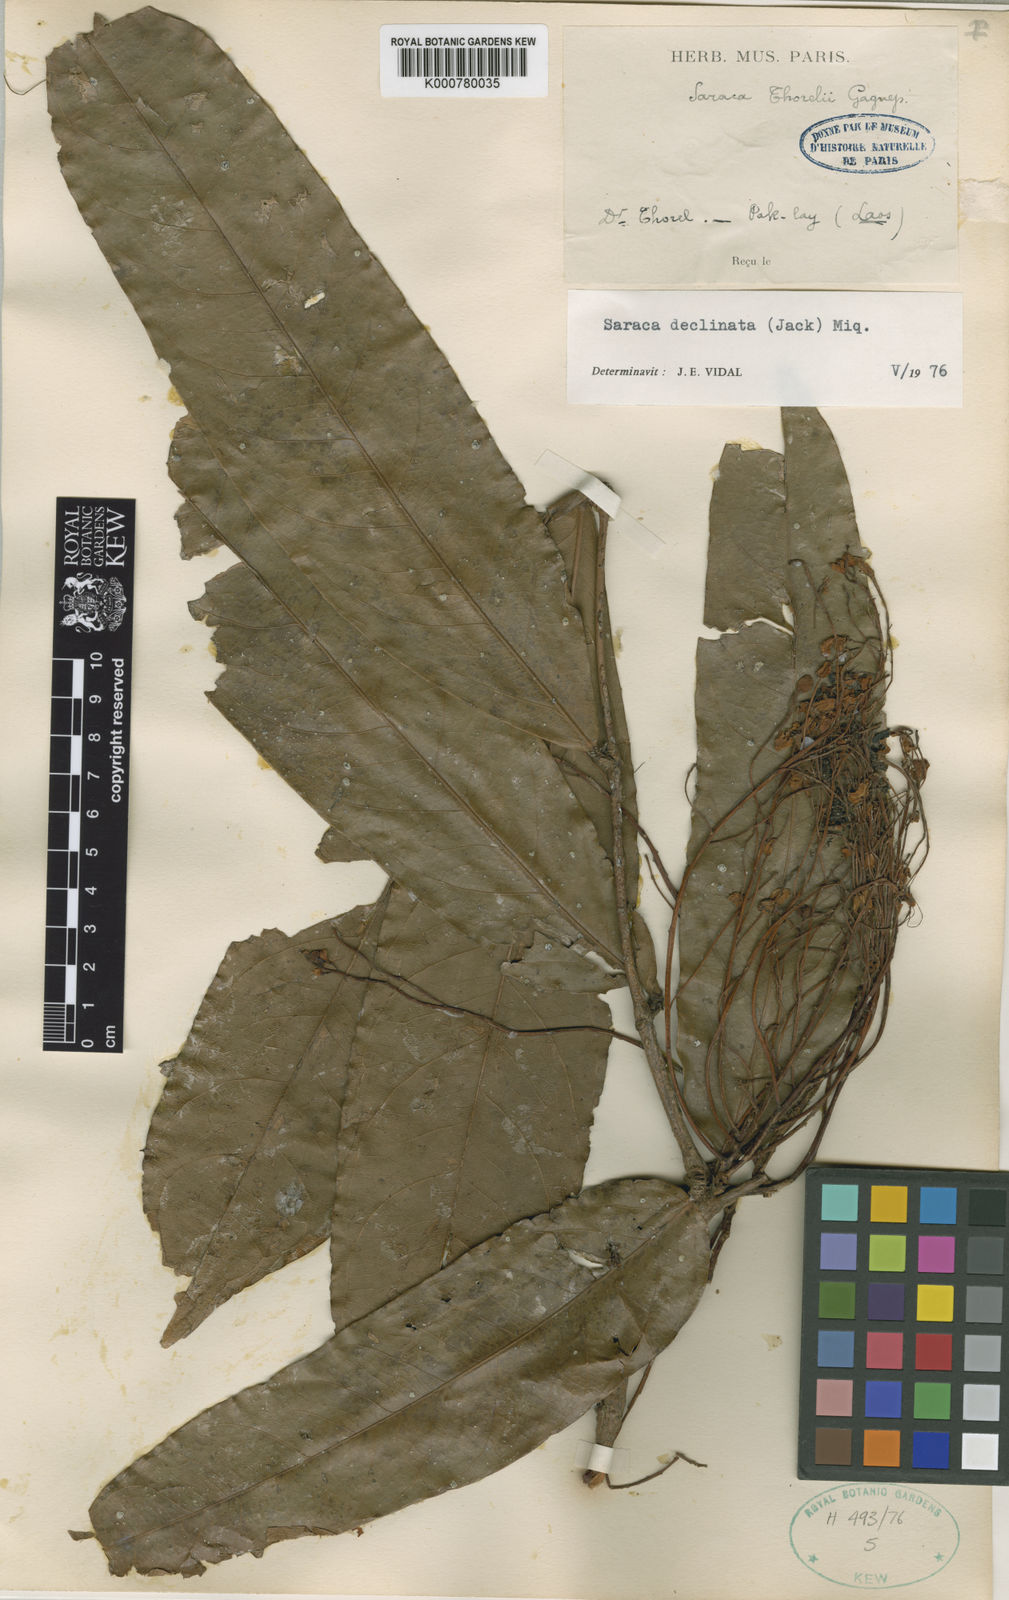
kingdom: Plantae
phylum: Tracheophyta
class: Magnoliopsida
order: Fabales
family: Fabaceae
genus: Saraca
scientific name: Saraca declinata
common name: Red saraca
